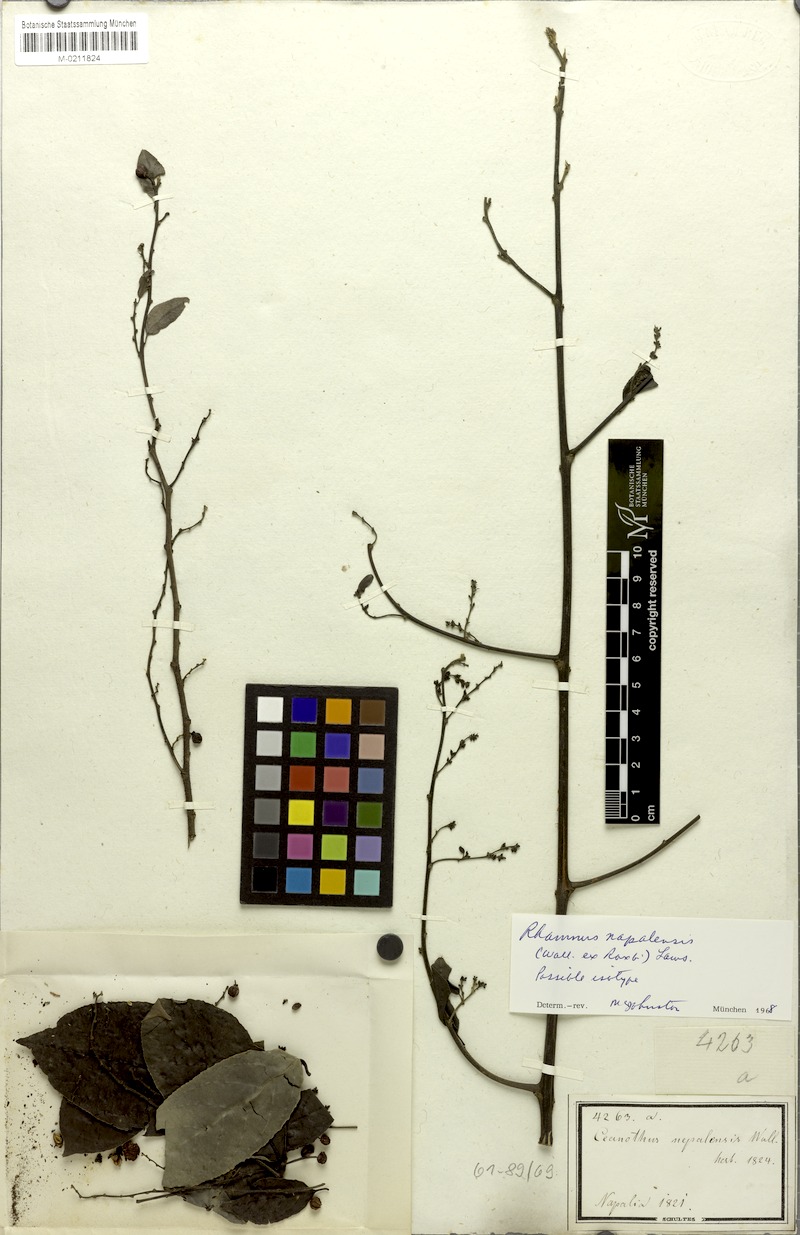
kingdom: Plantae
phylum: Tracheophyta
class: Magnoliopsida
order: Rosales
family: Rhamnaceae
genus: Rhamnus
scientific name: Rhamnus napalensis
